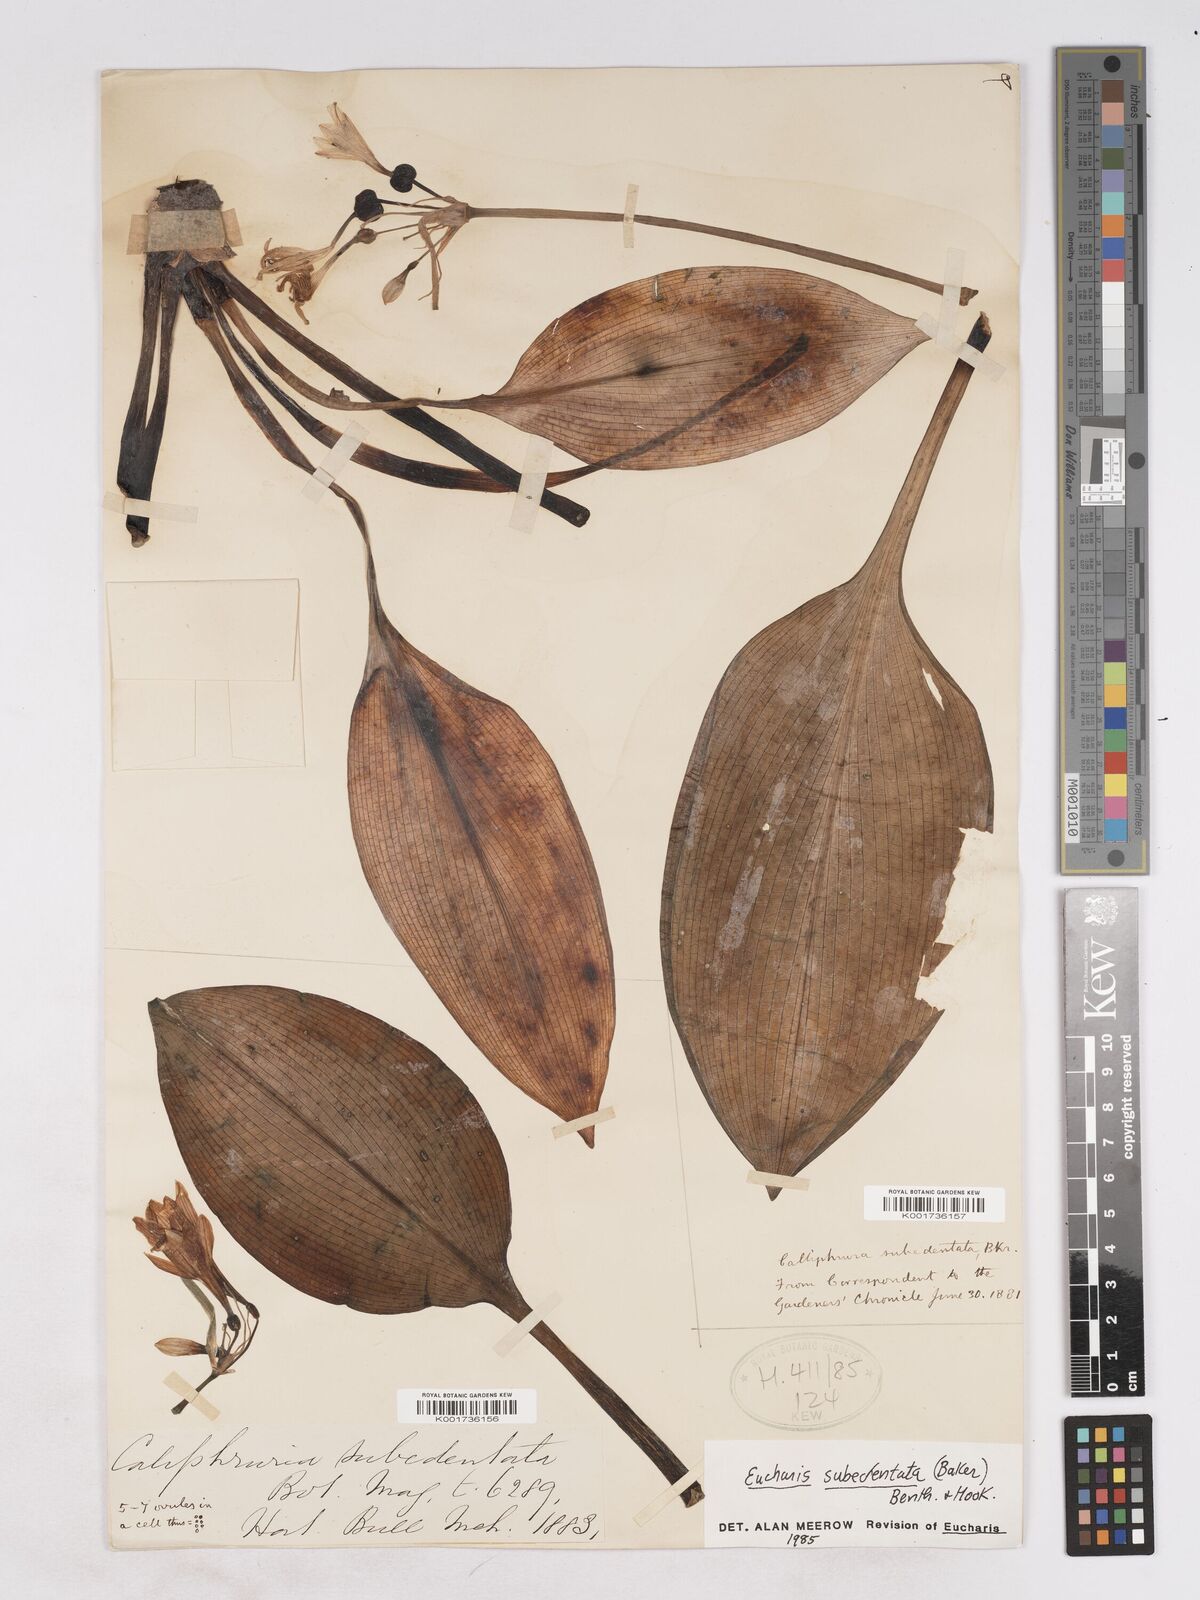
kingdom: Plantae
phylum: Tracheophyta
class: Liliopsida
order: Asparagales
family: Amaryllidaceae
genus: Urceolina
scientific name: Urceolina subedentata
